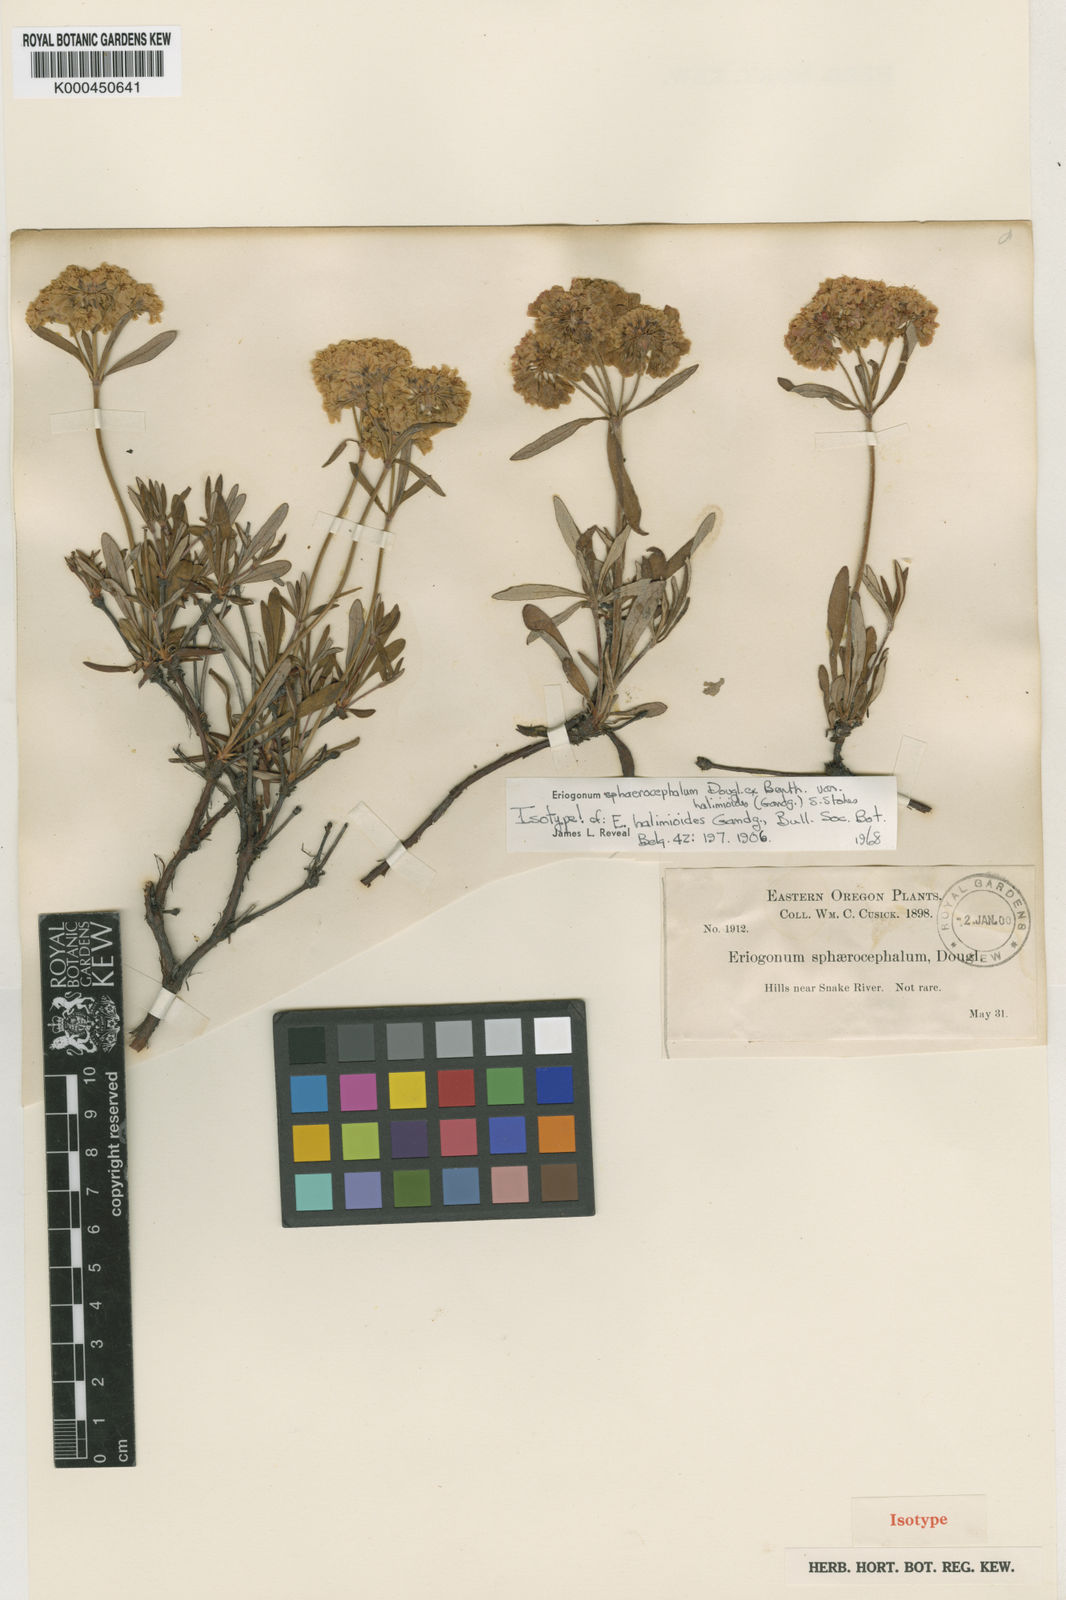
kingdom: Plantae
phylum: Tracheophyta
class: Magnoliopsida
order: Caryophyllales
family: Polygonaceae
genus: Eriogonum
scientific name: Eriogonum sphaerocephalum
